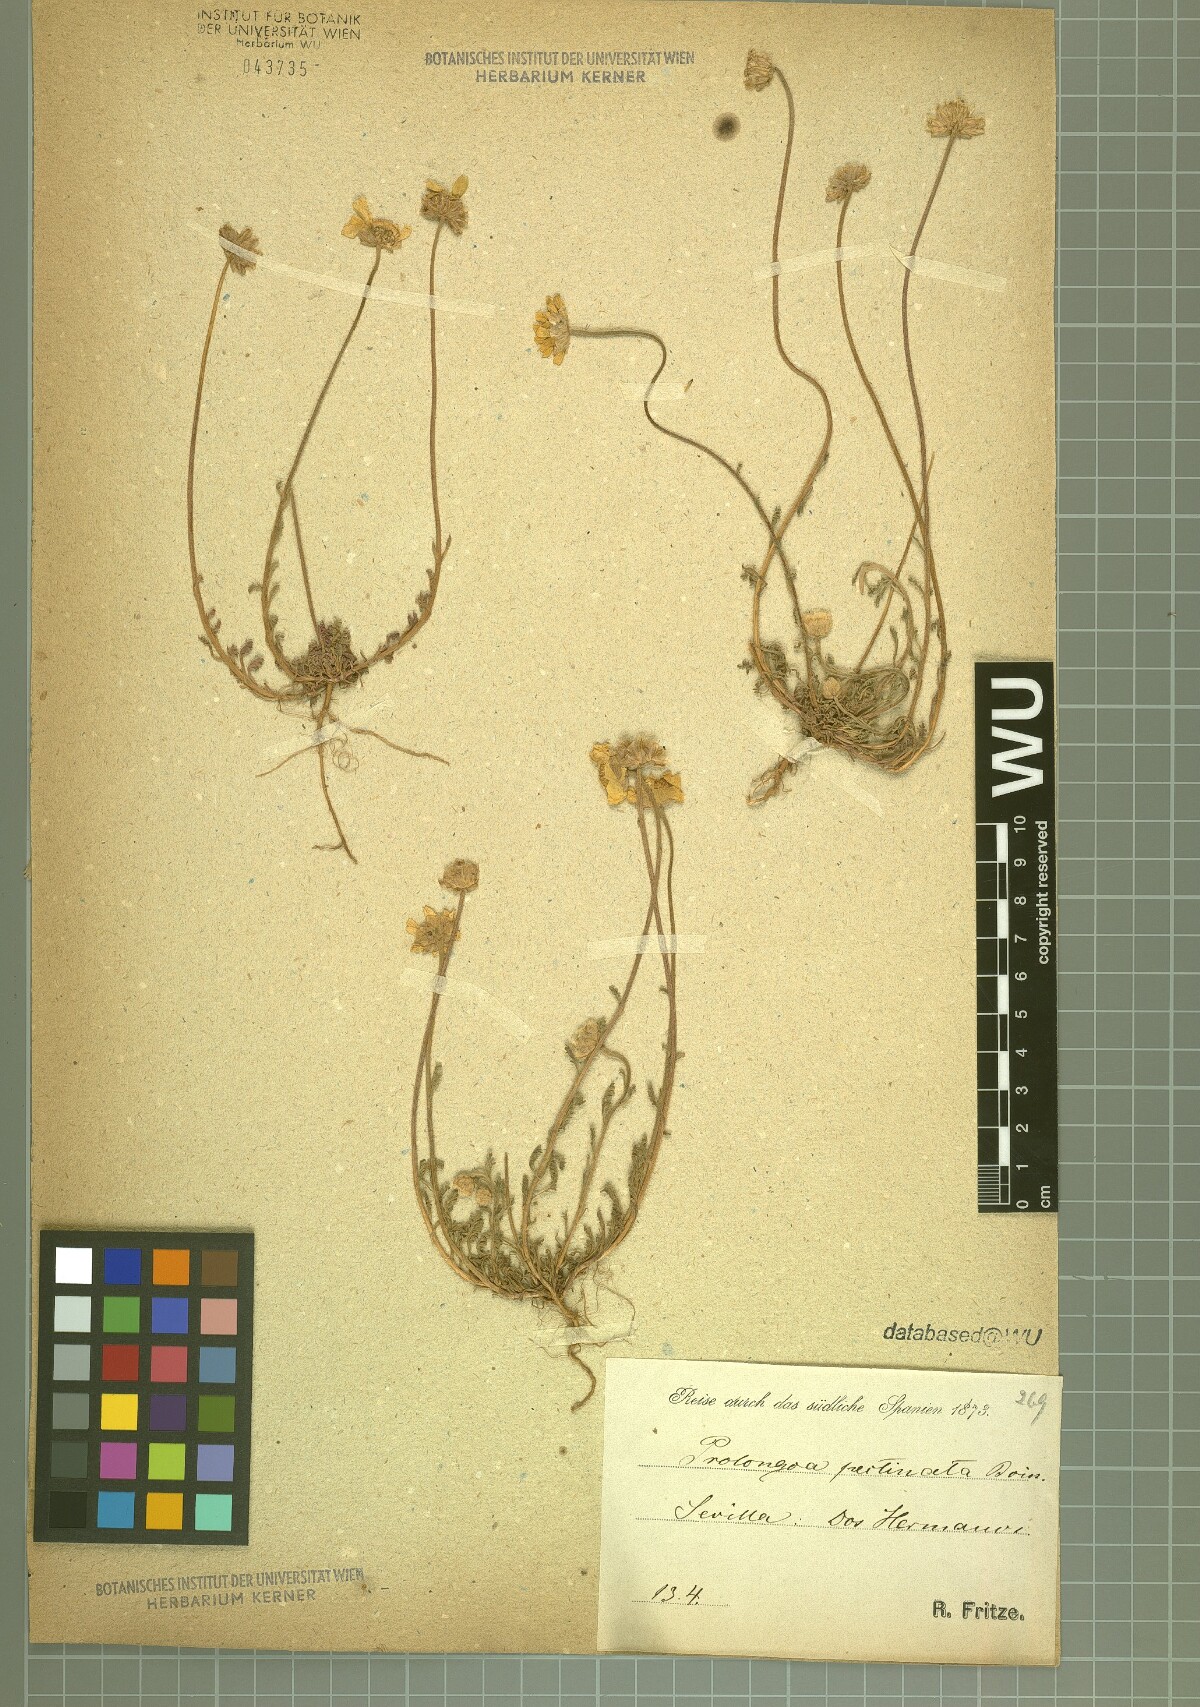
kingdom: Plantae
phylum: Tracheophyta
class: Magnoliopsida
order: Asterales
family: Asteraceae
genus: Leucanthemopsis
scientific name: Leucanthemopsis pectinata
